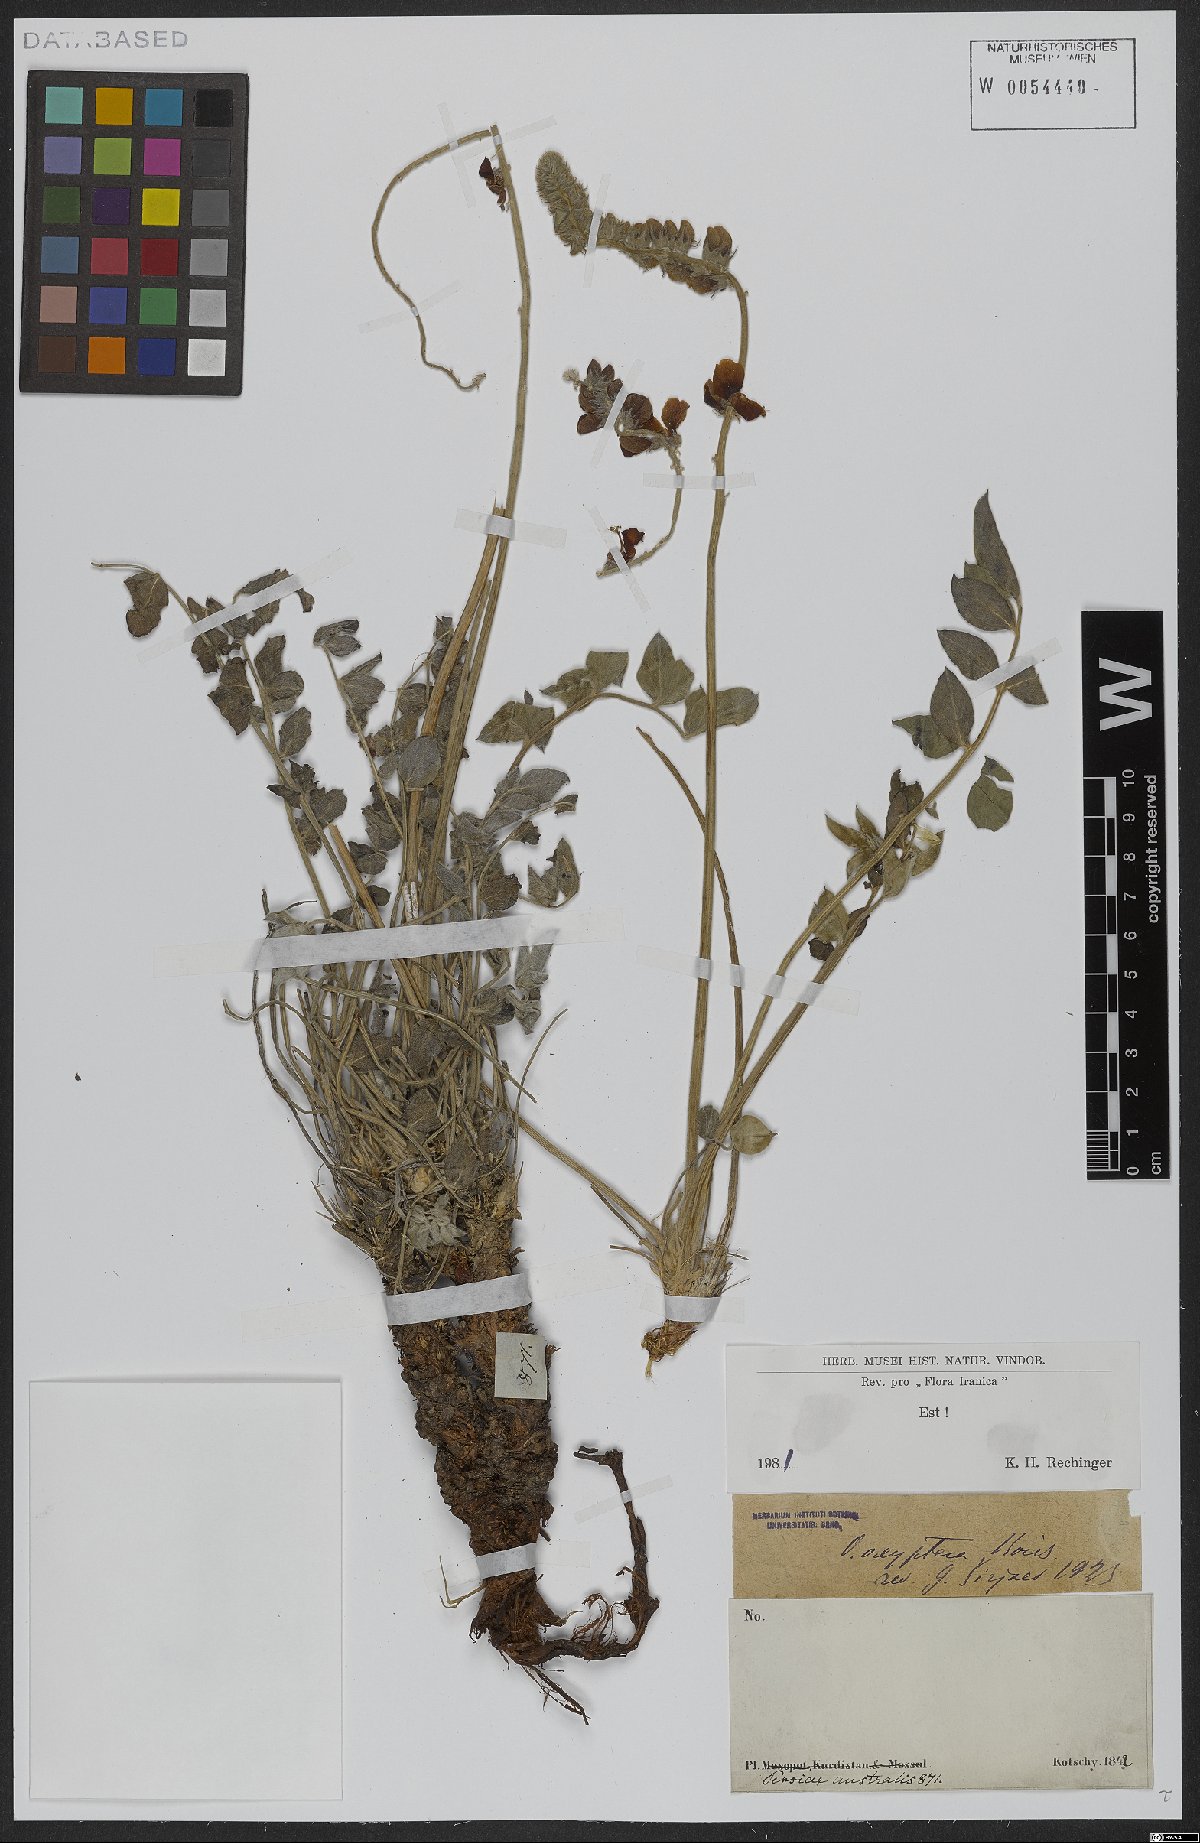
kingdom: Plantae
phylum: Tracheophyta
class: Magnoliopsida
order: Fabales
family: Fabaceae
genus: Onobrychis
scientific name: Onobrychis oxyptera
